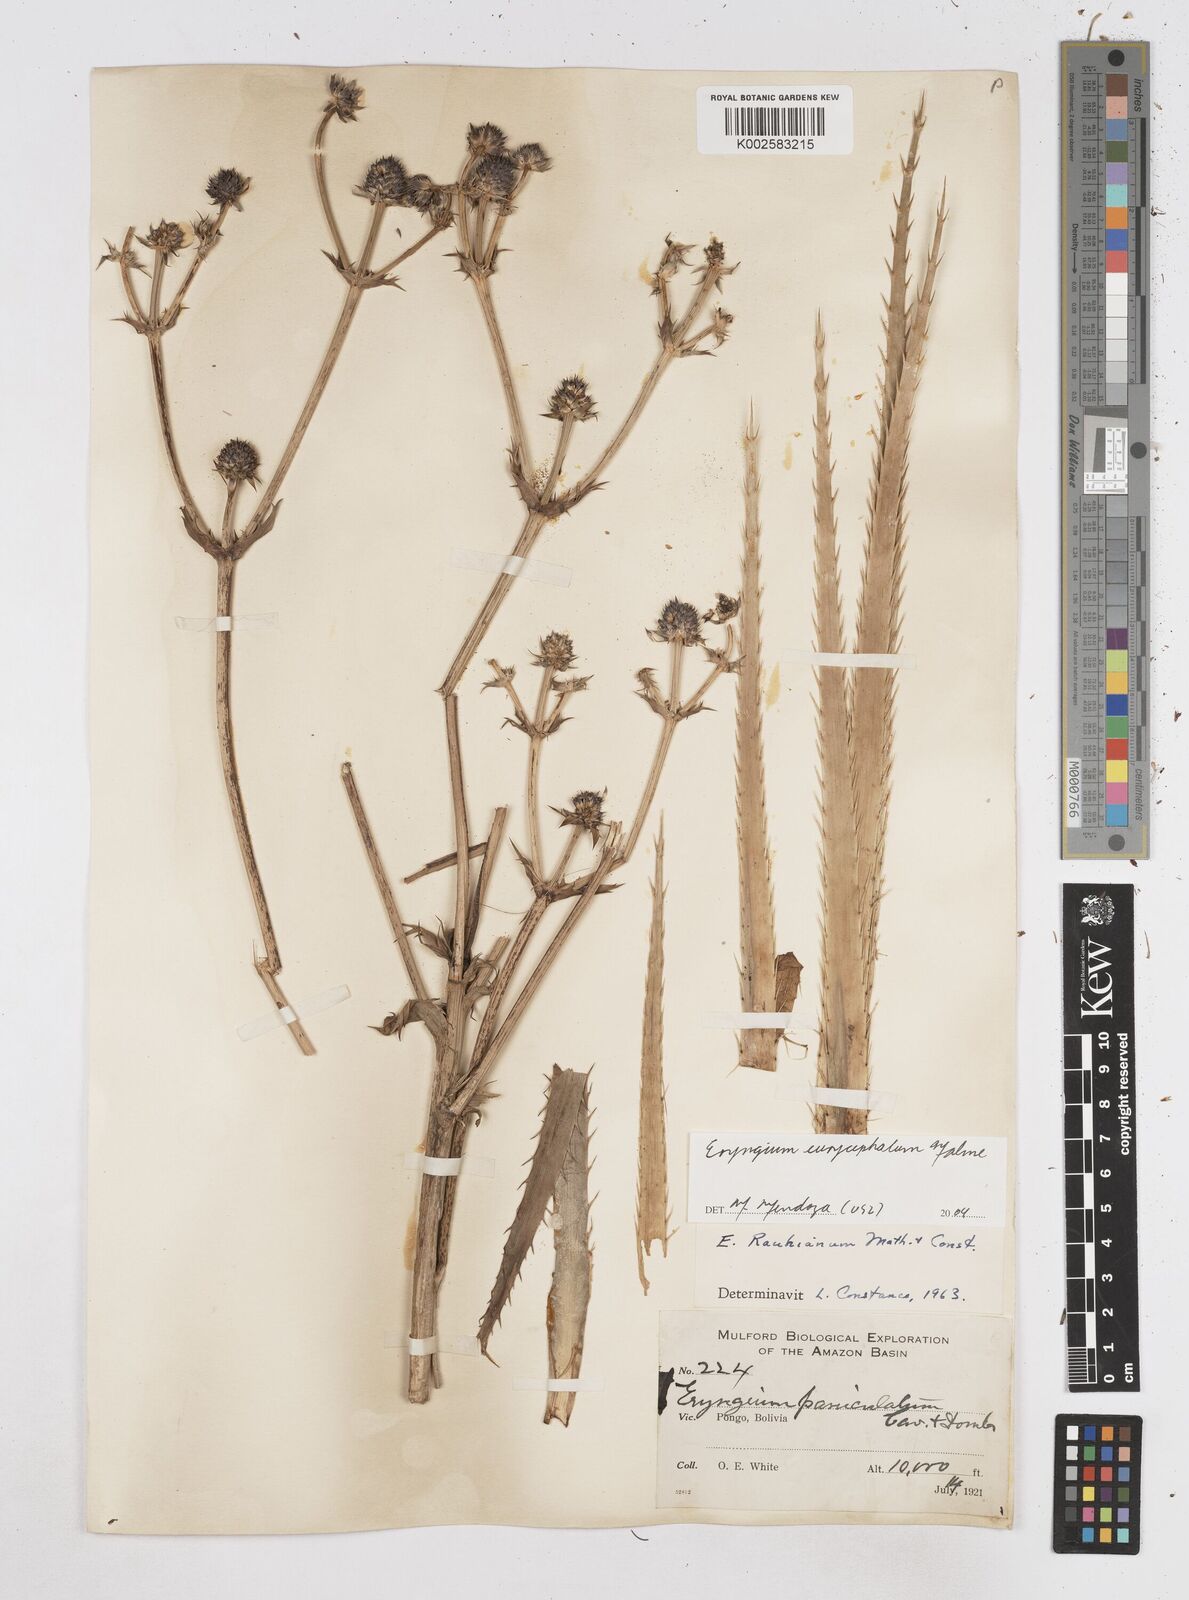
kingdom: Plantae
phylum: Tracheophyta
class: Magnoliopsida
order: Apiales
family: Apiaceae
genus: Eryngium
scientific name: Eryngium eurycephalum
